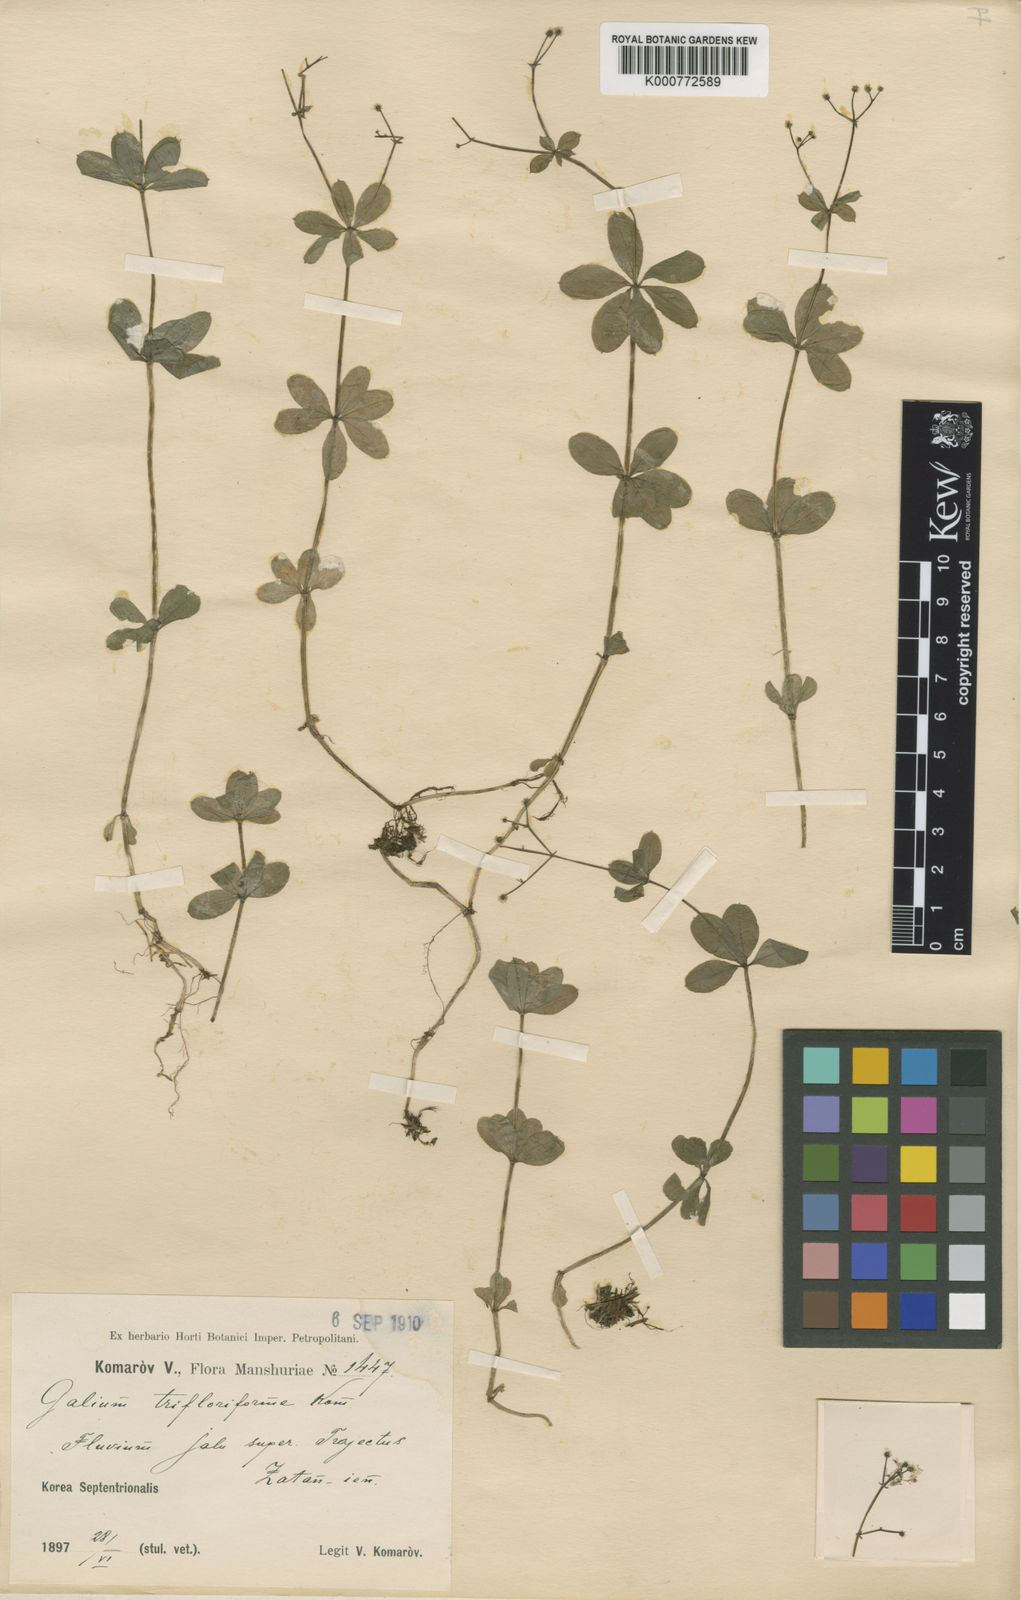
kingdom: Plantae
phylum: Tracheophyta
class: Magnoliopsida
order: Gentianales
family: Rubiaceae
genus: Galium
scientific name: Galium trifloriforme
